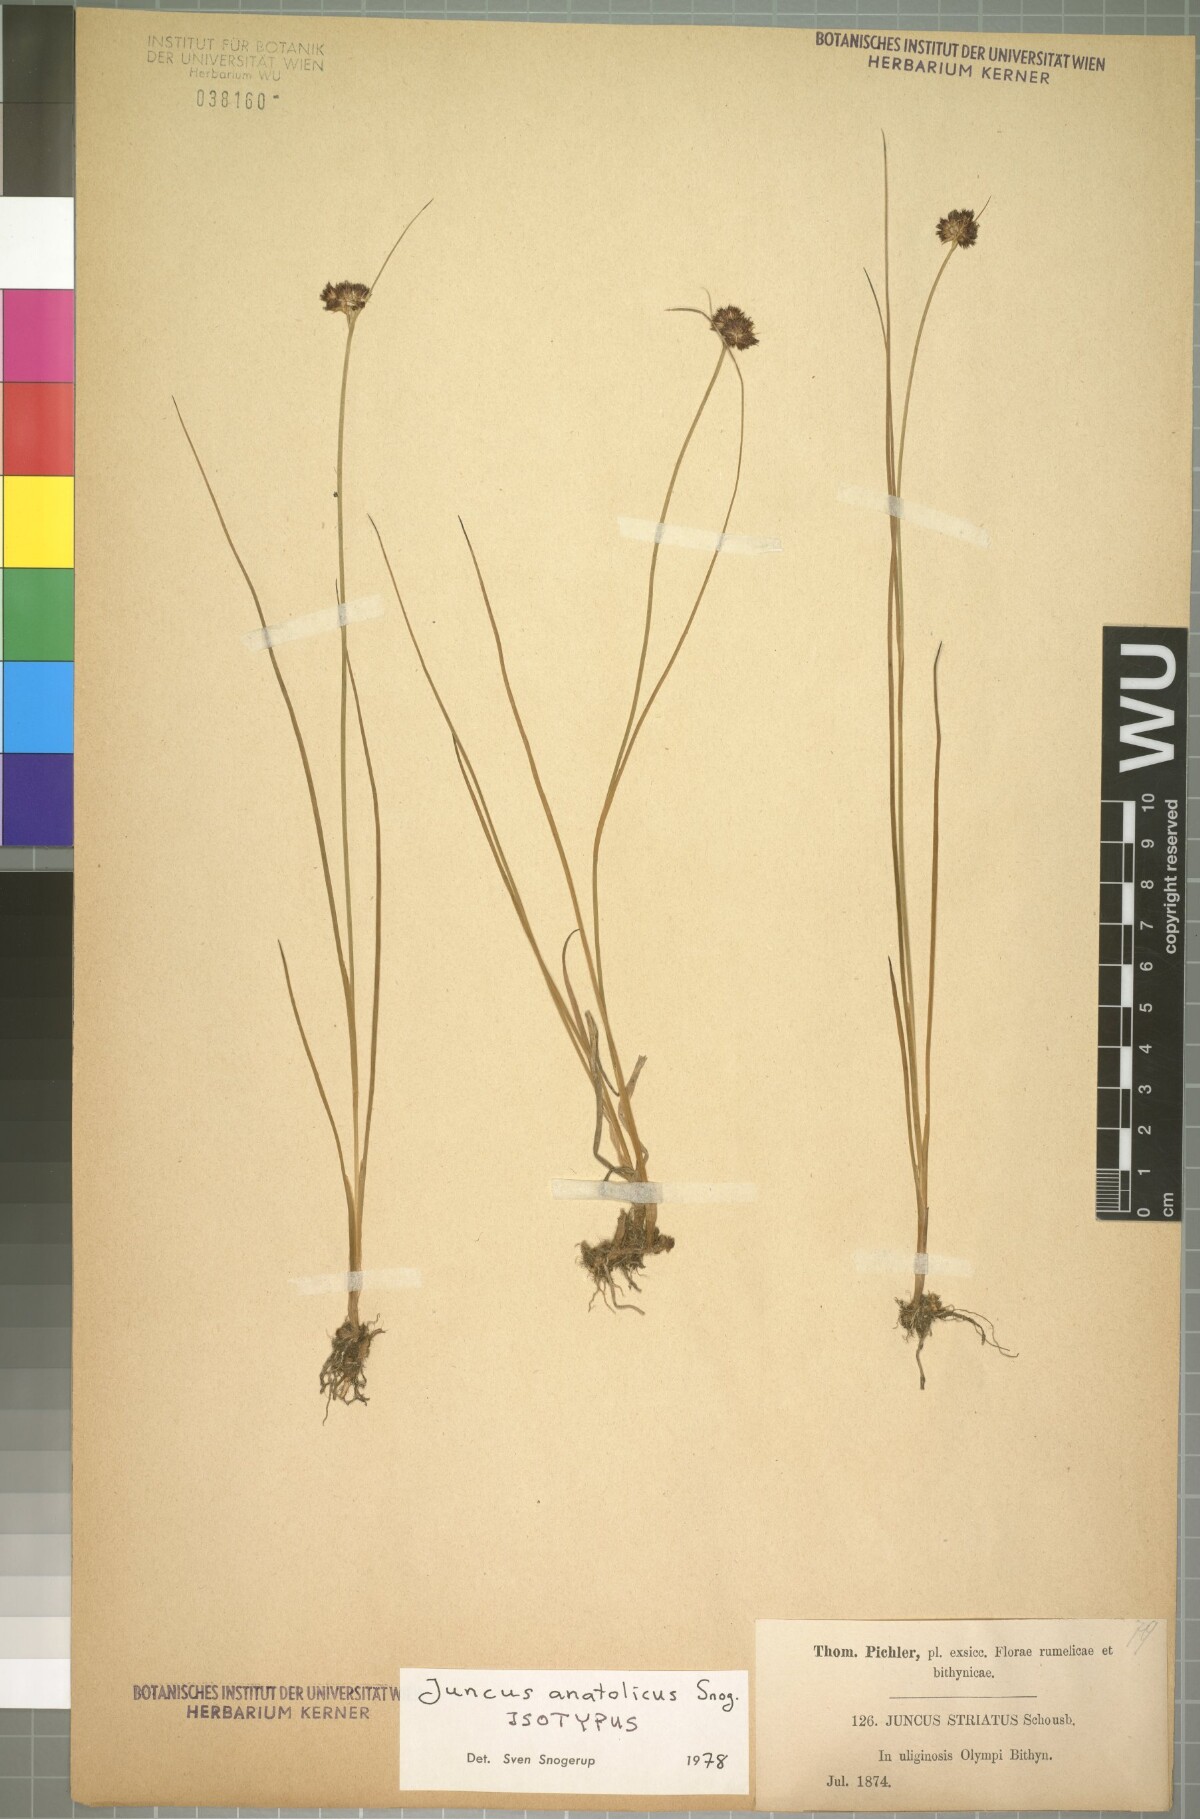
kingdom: Plantae
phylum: Tracheophyta
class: Liliopsida
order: Poales
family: Juncaceae
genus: Juncus
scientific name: Juncus anatolicus
